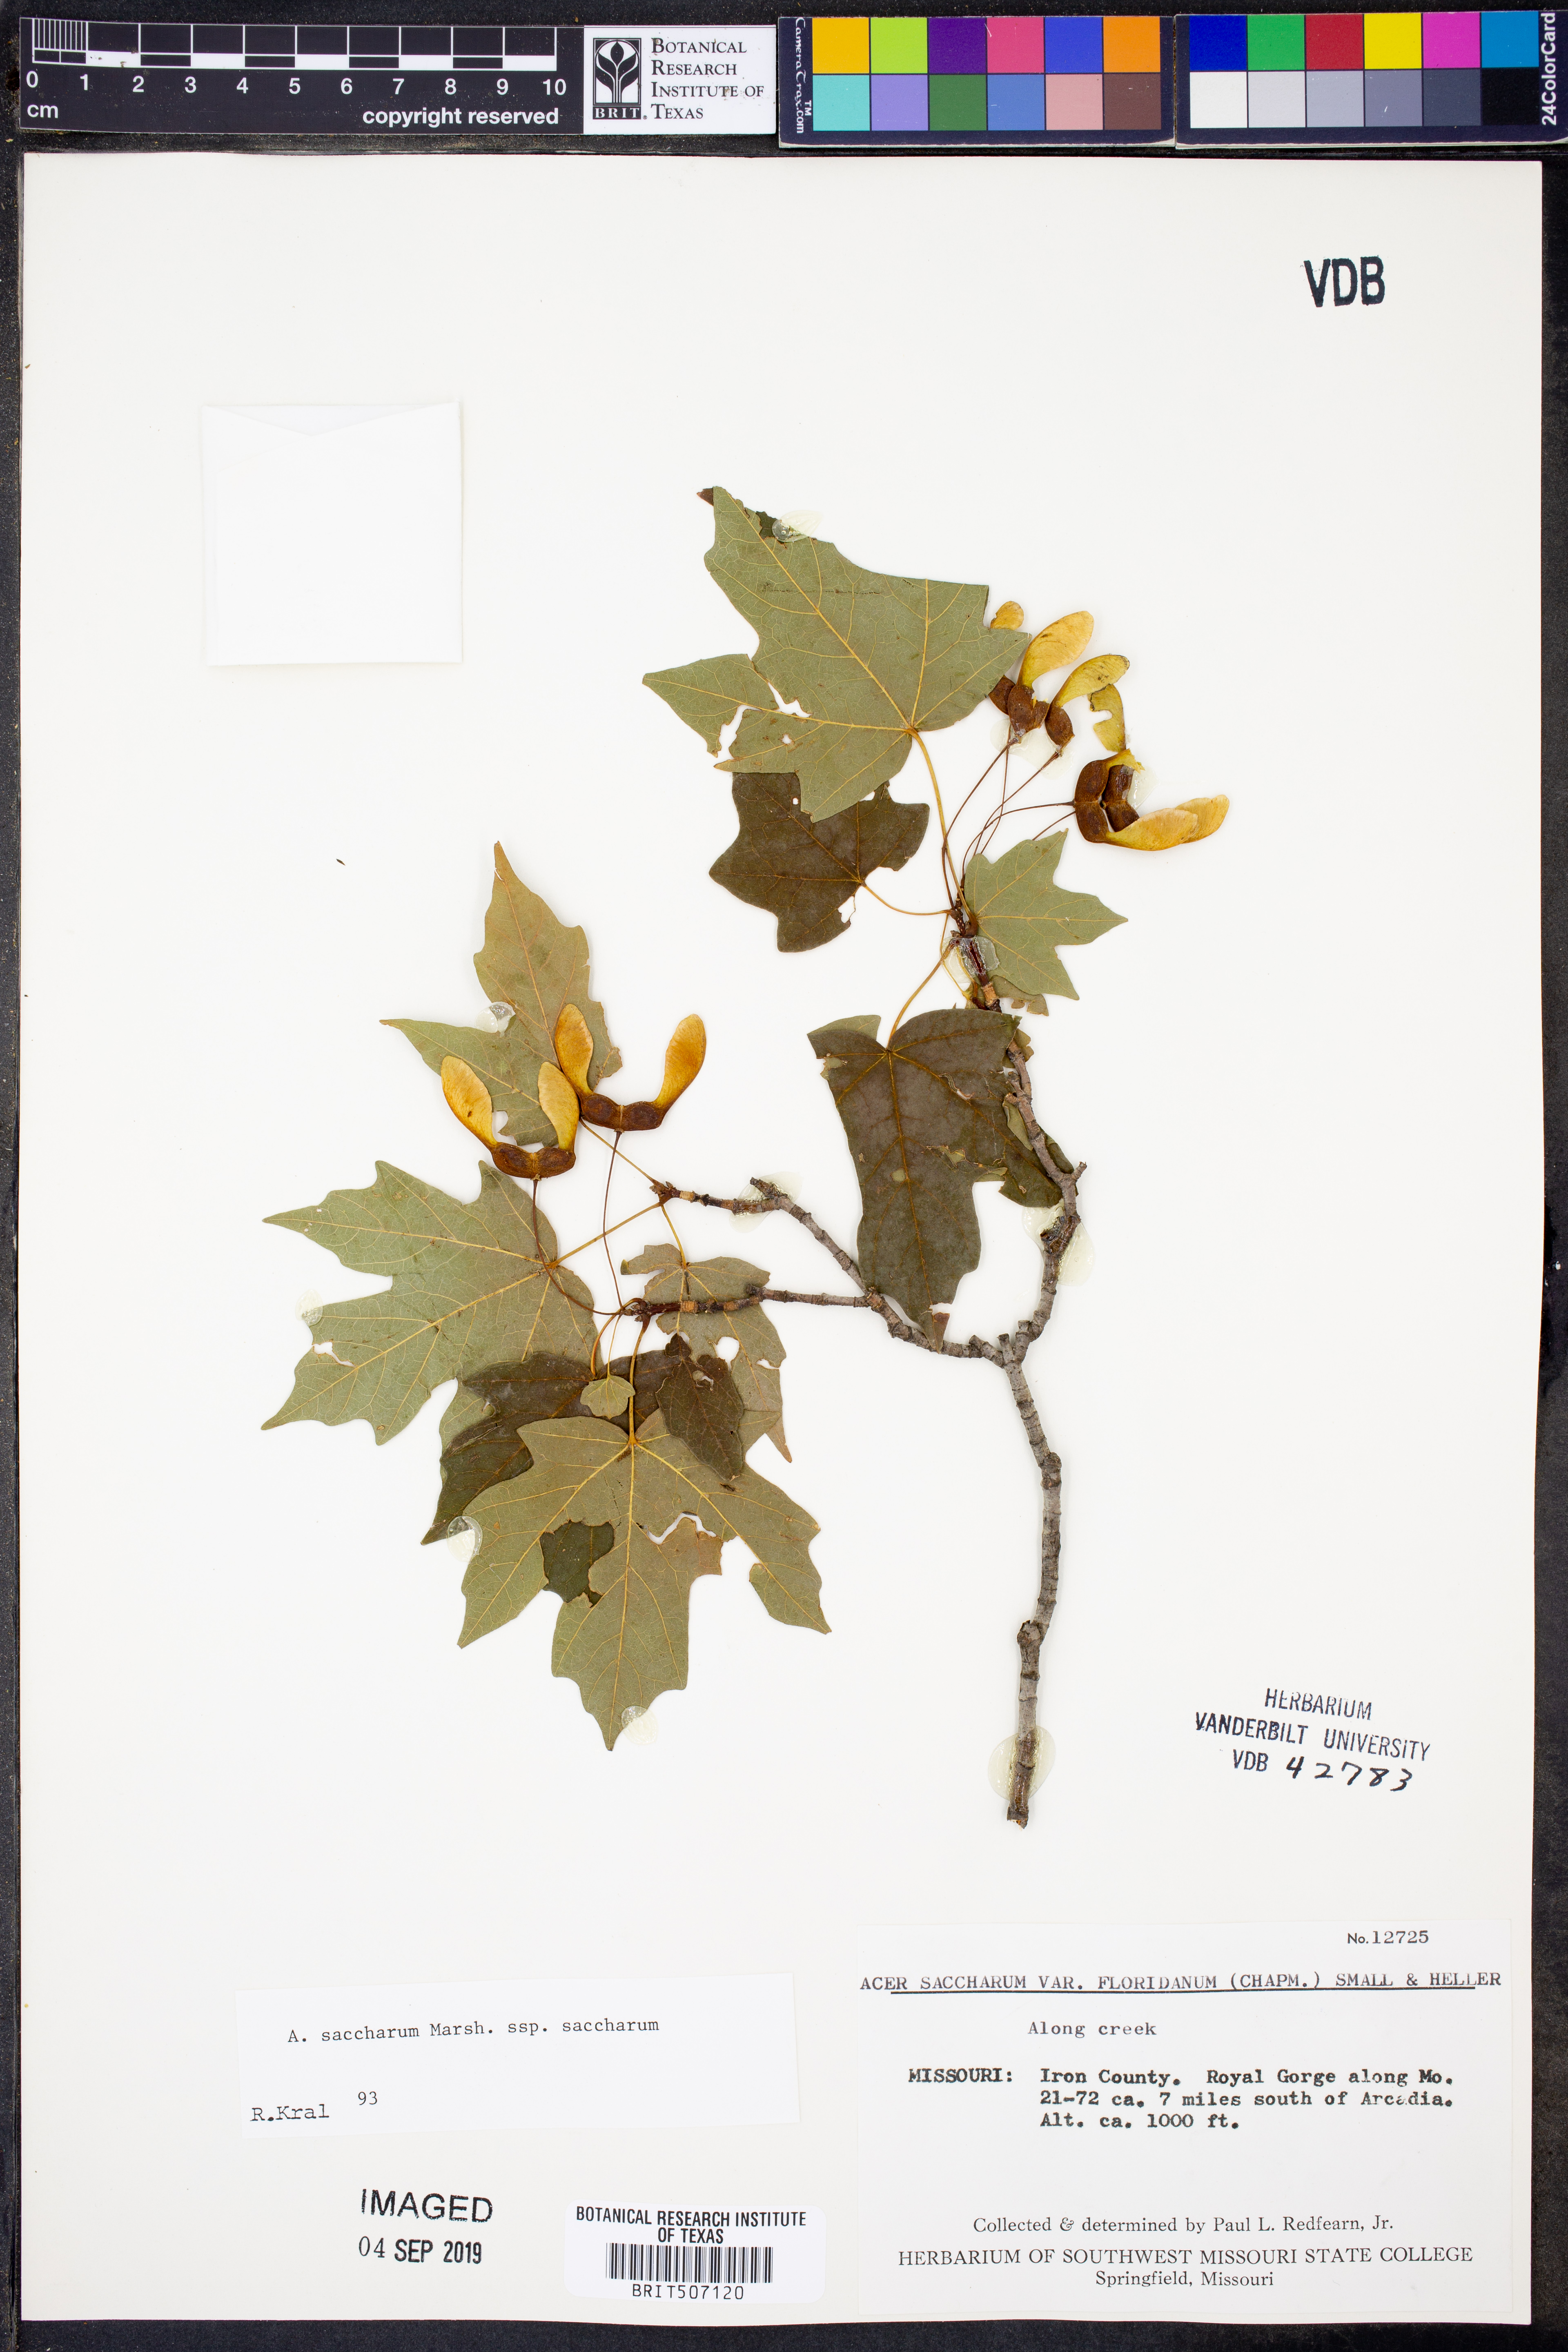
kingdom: Plantae
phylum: Tracheophyta
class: Magnoliopsida
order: Sapindales
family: Sapindaceae
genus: Acer
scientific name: Acer saccharum
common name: Sugar maple
